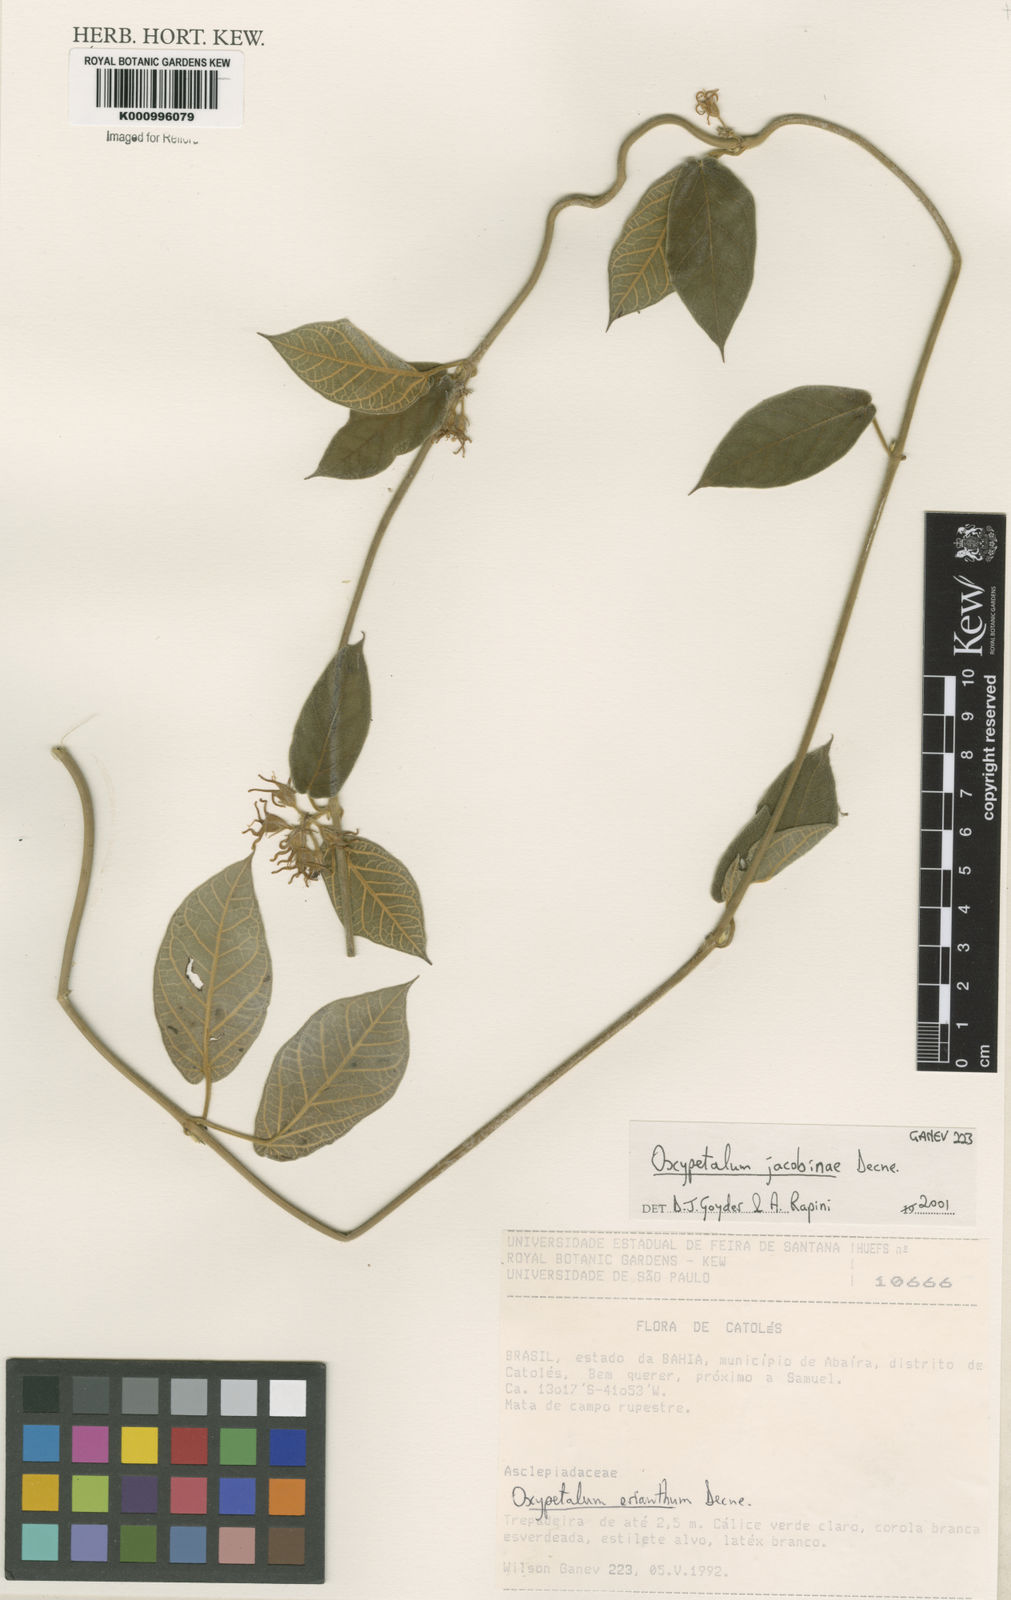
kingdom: Plantae
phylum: Tracheophyta
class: Magnoliopsida
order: Gentianales
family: Apocynaceae
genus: Oxypetalum
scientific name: Oxypetalum jacobinae
